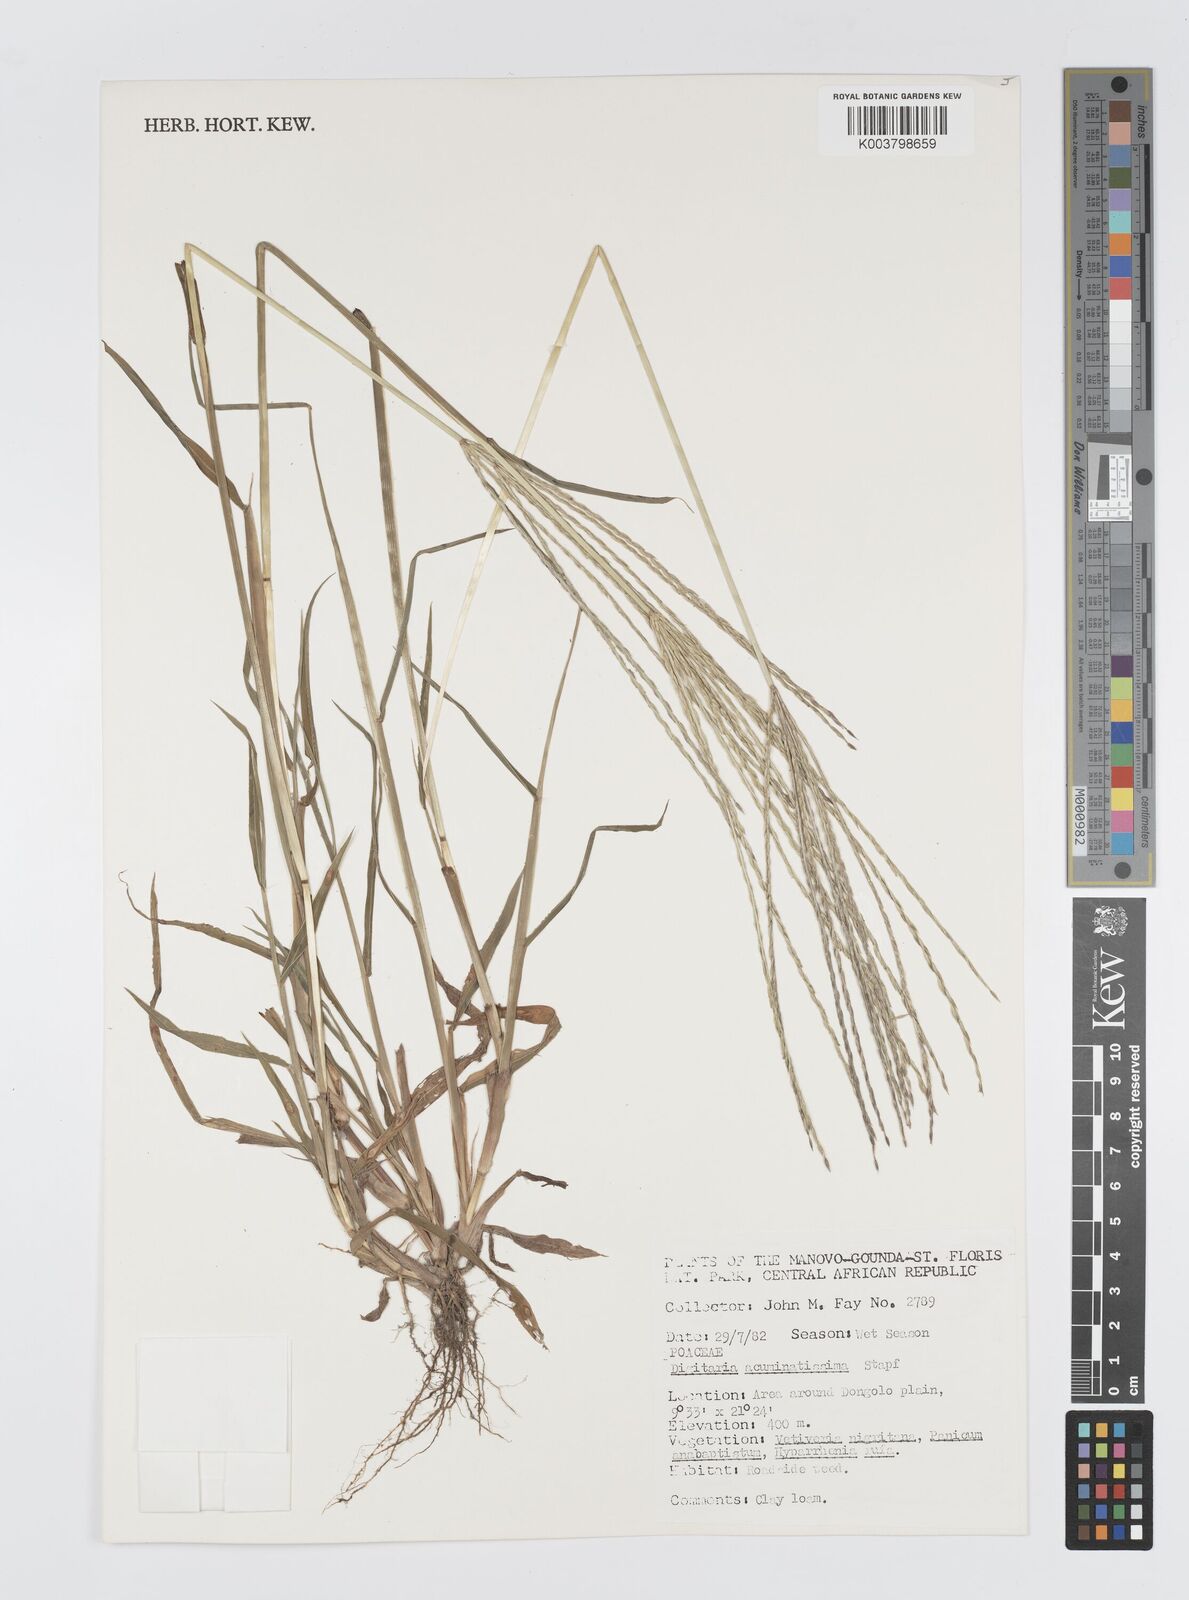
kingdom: Plantae
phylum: Tracheophyta
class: Liliopsida
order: Poales
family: Poaceae
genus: Digitaria
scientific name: Digitaria acuminatissima
